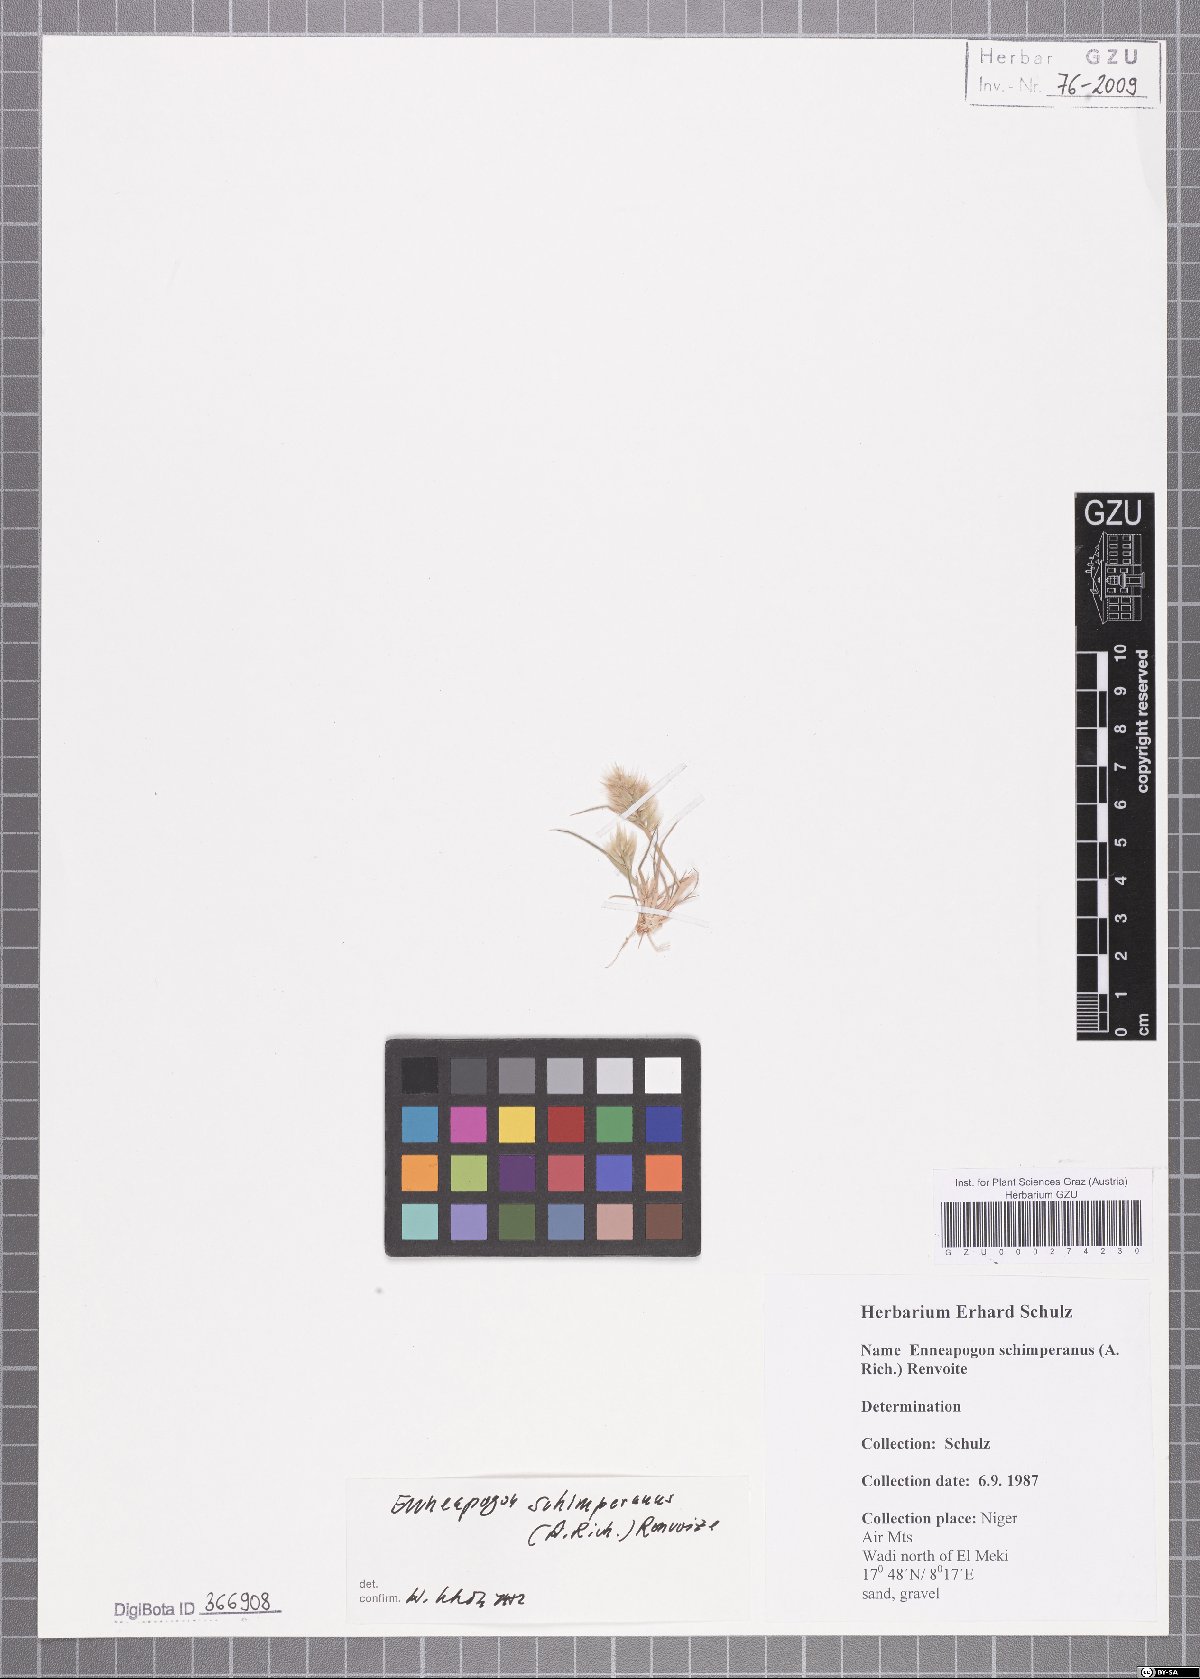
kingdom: Plantae
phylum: Tracheophyta
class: Liliopsida
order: Poales
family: Poaceae
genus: Enneapogon
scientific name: Enneapogon persicus
